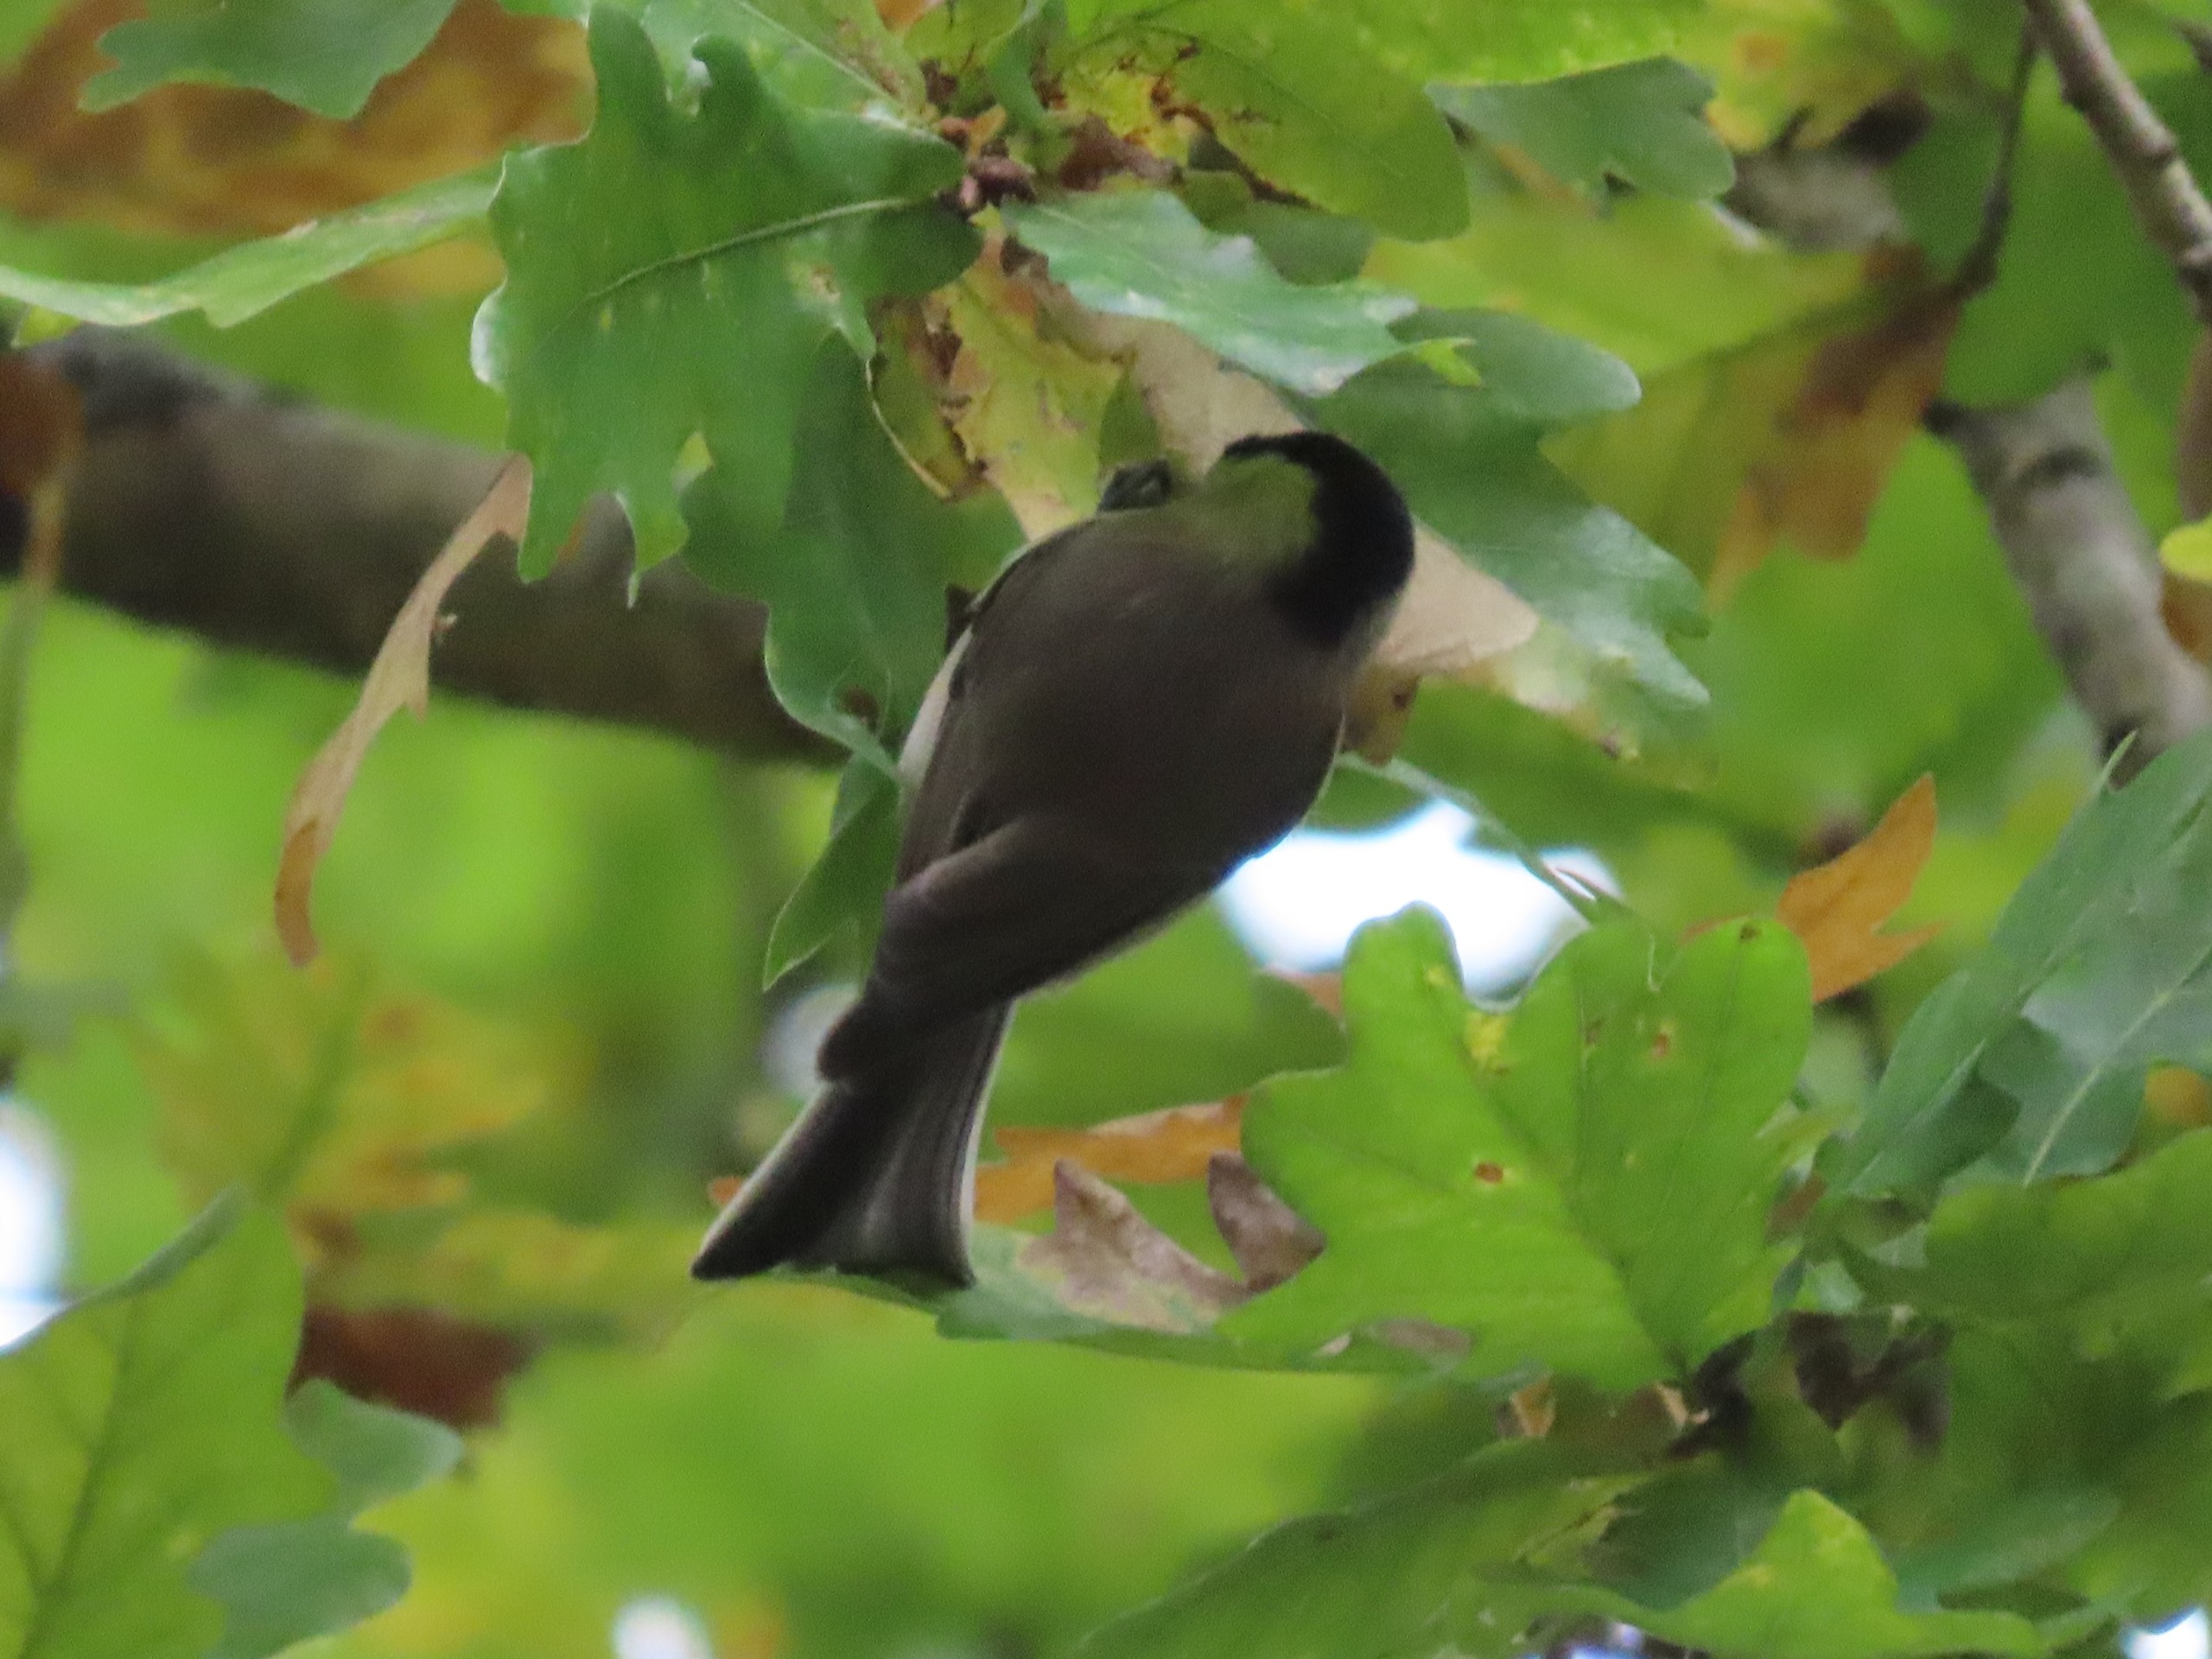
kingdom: Animalia
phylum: Chordata
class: Aves
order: Passeriformes
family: Paridae
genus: Poecile
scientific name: Poecile palustris
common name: Sumpmejse
